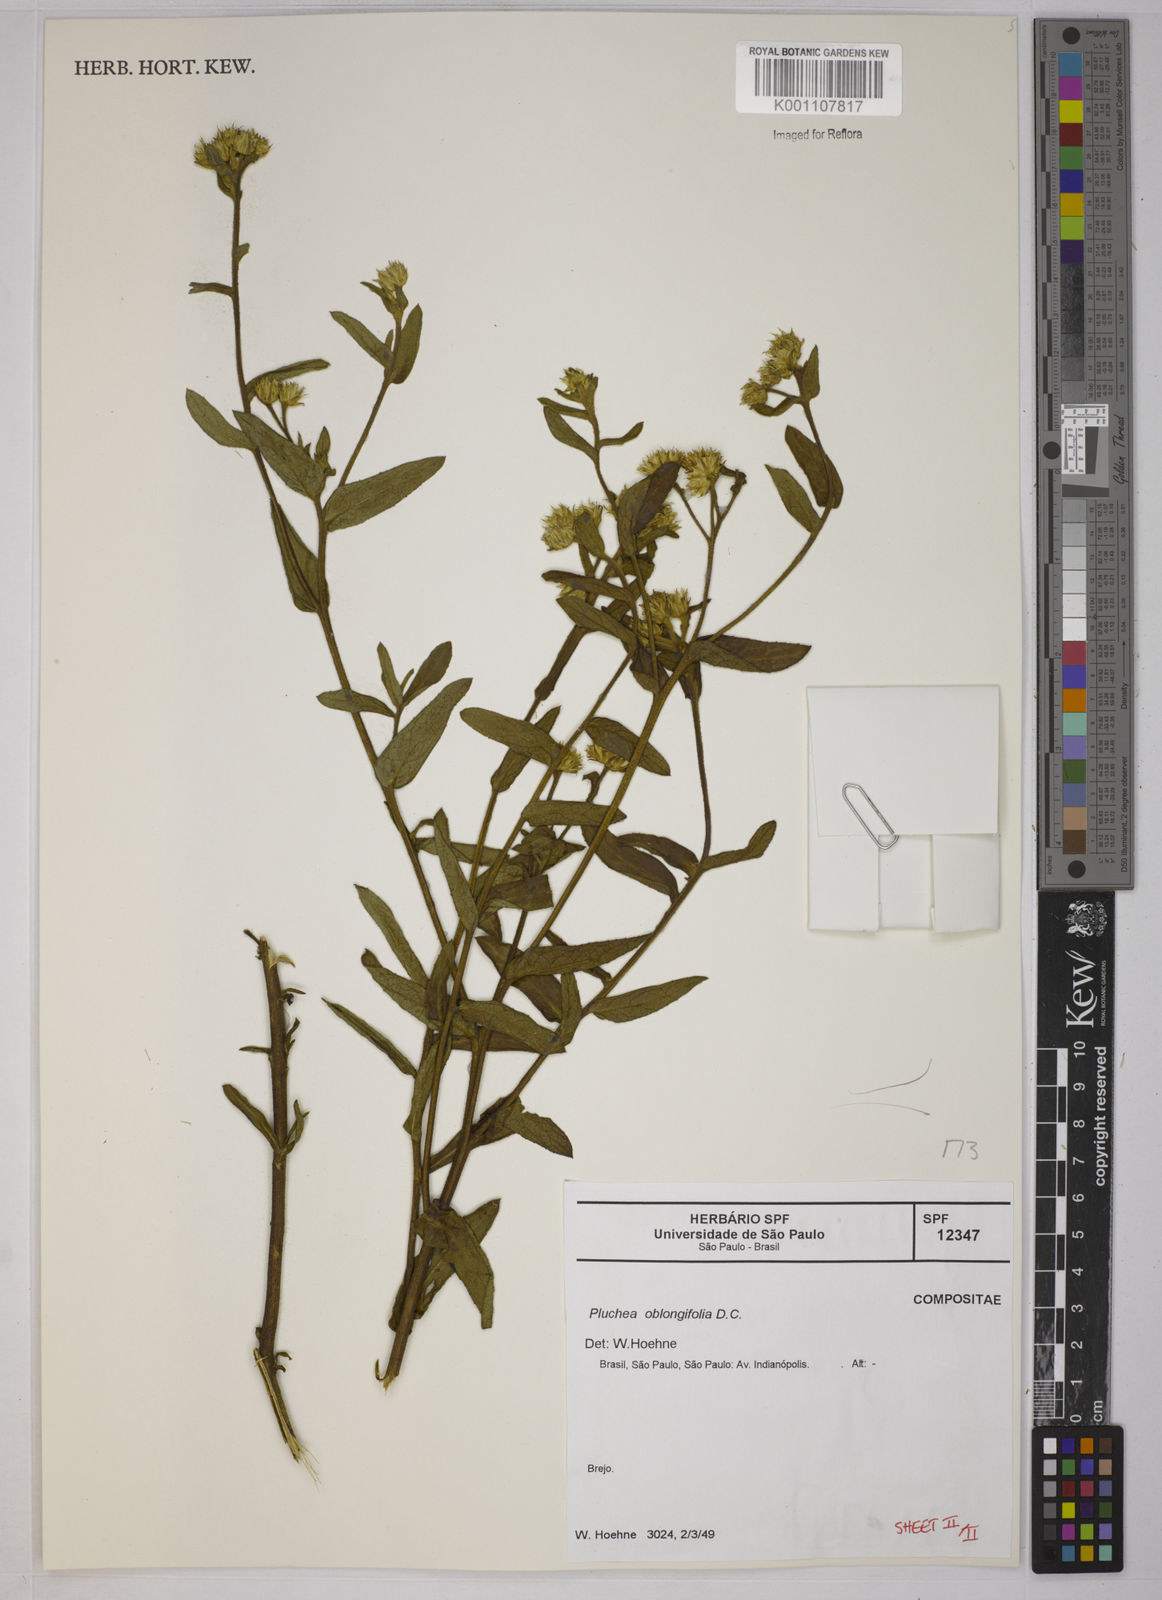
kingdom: Plantae
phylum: Tracheophyta
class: Magnoliopsida
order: Asterales
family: Asteraceae
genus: Pluchea
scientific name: Pluchea oblongifolia
